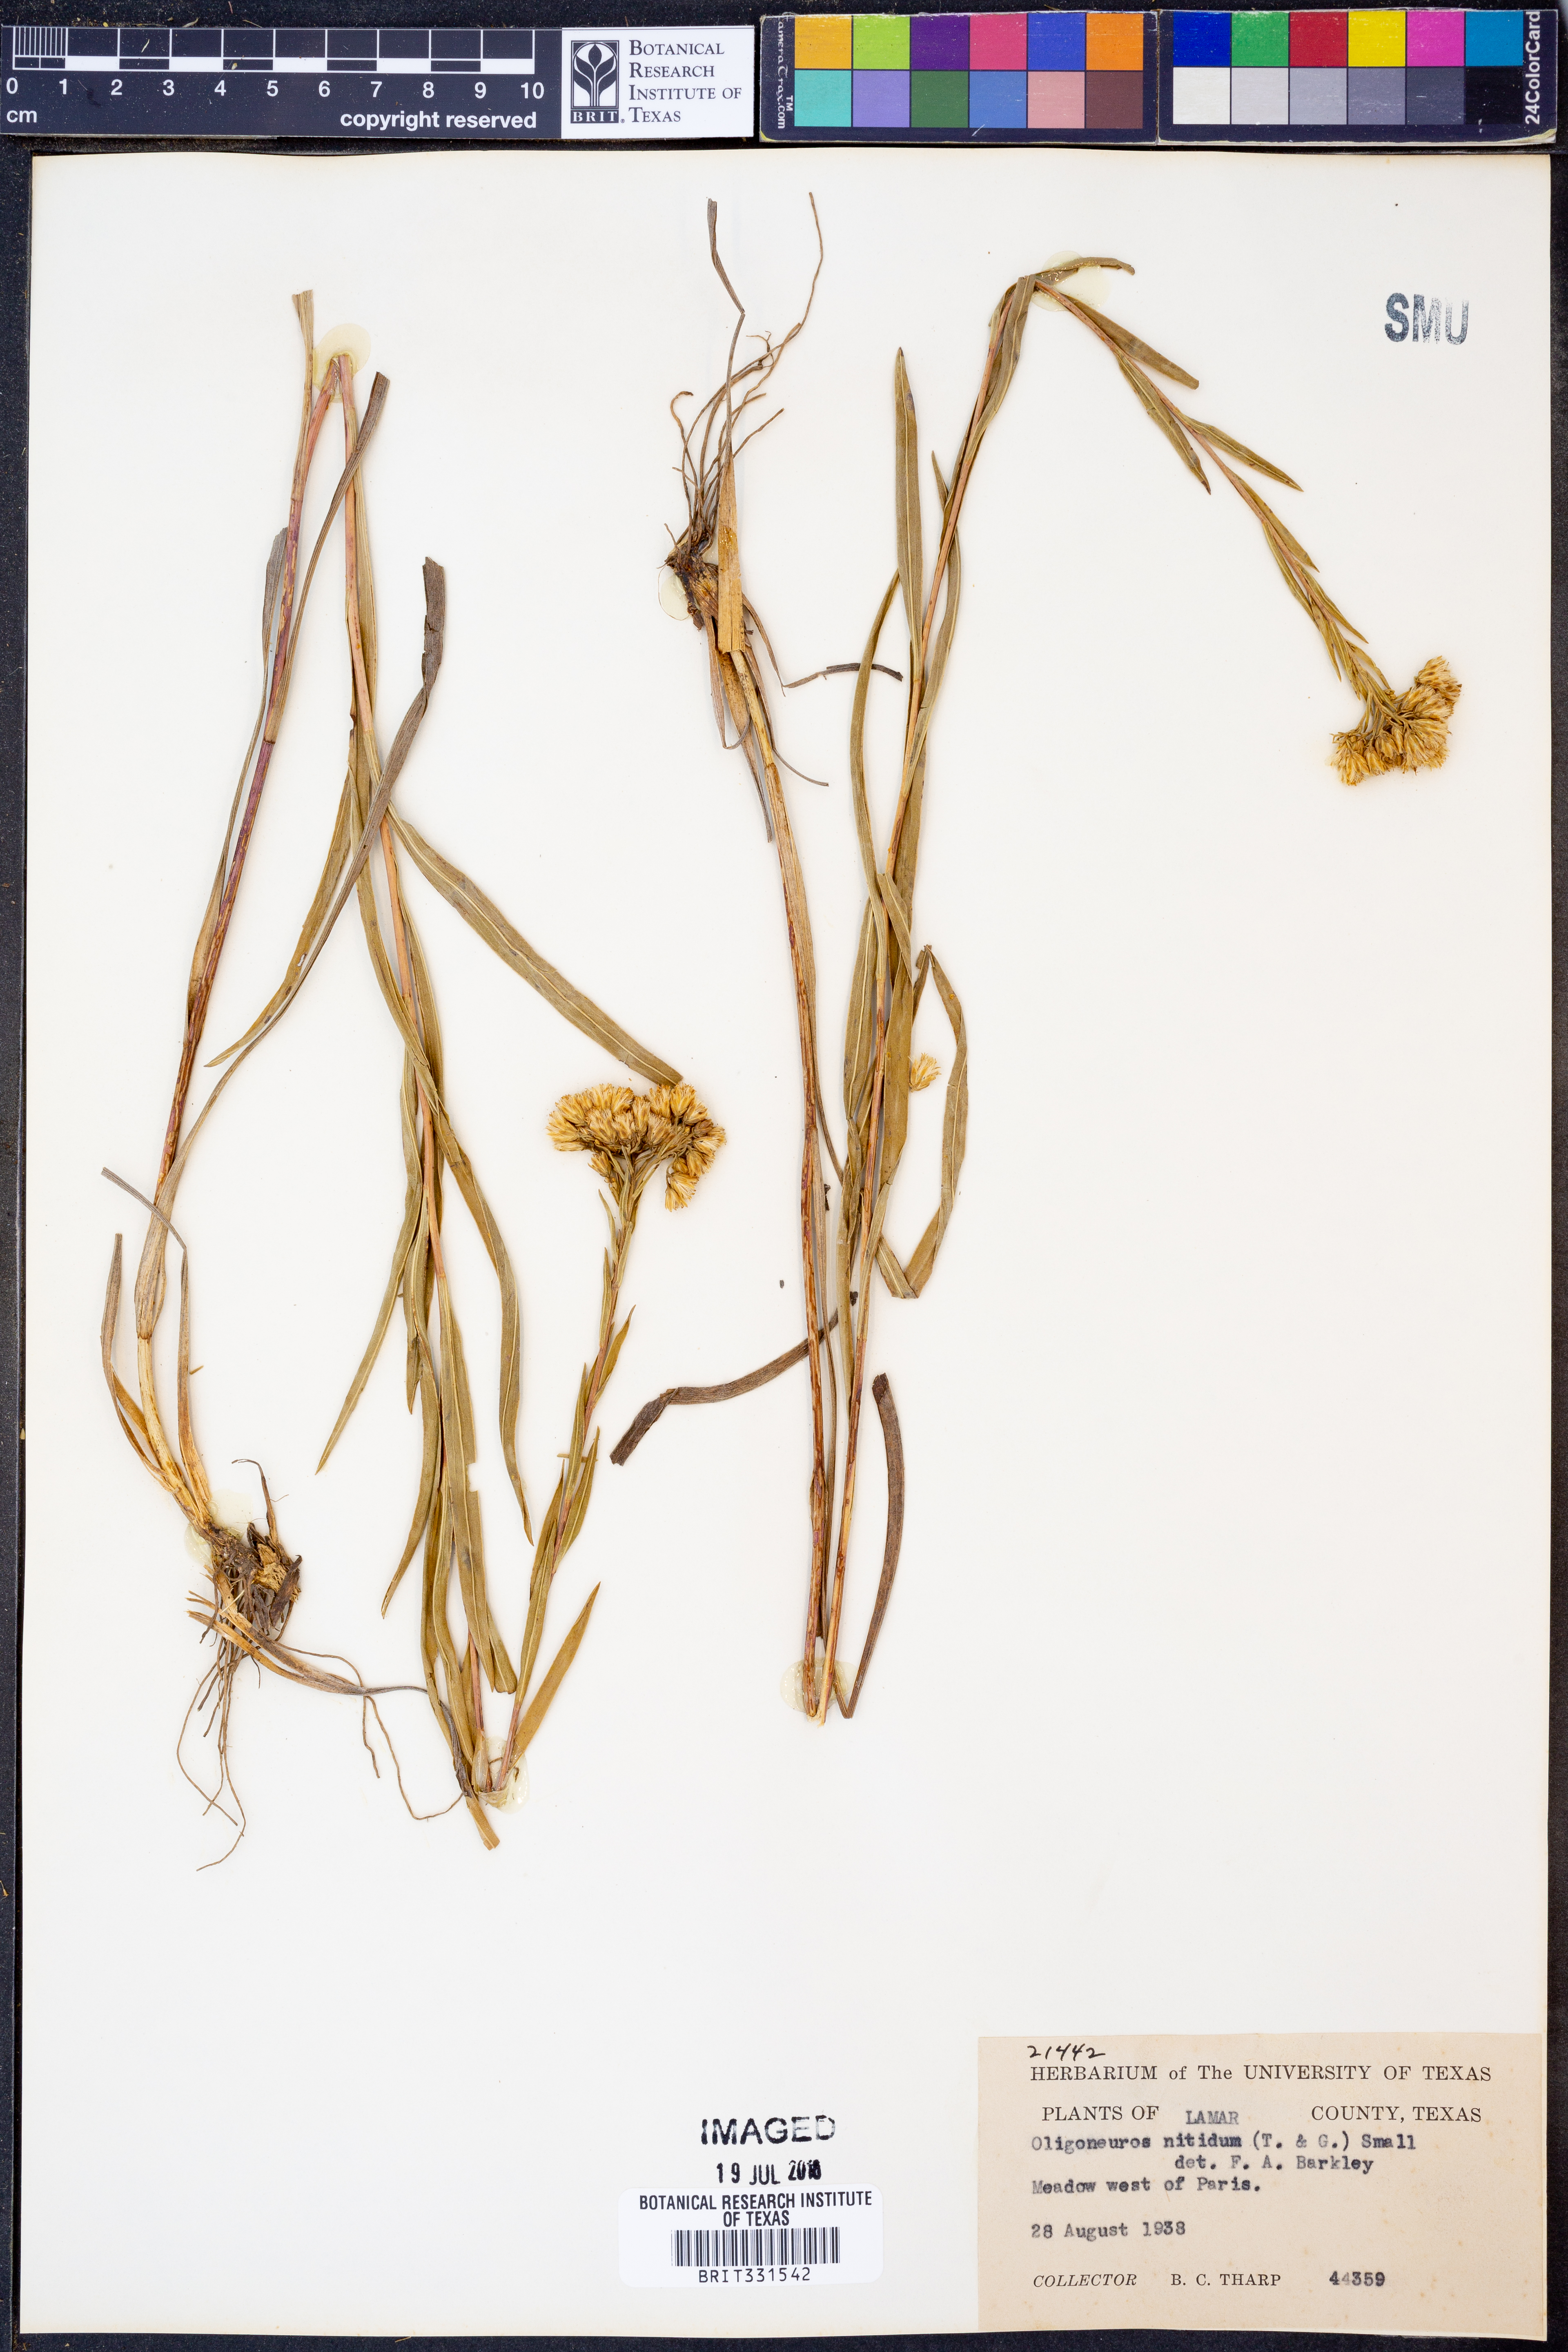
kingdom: Plantae
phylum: Tracheophyta
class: Magnoliopsida
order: Asterales
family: Asteraceae
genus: Solidago
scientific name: Solidago nitida
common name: Shiny goldenrod
